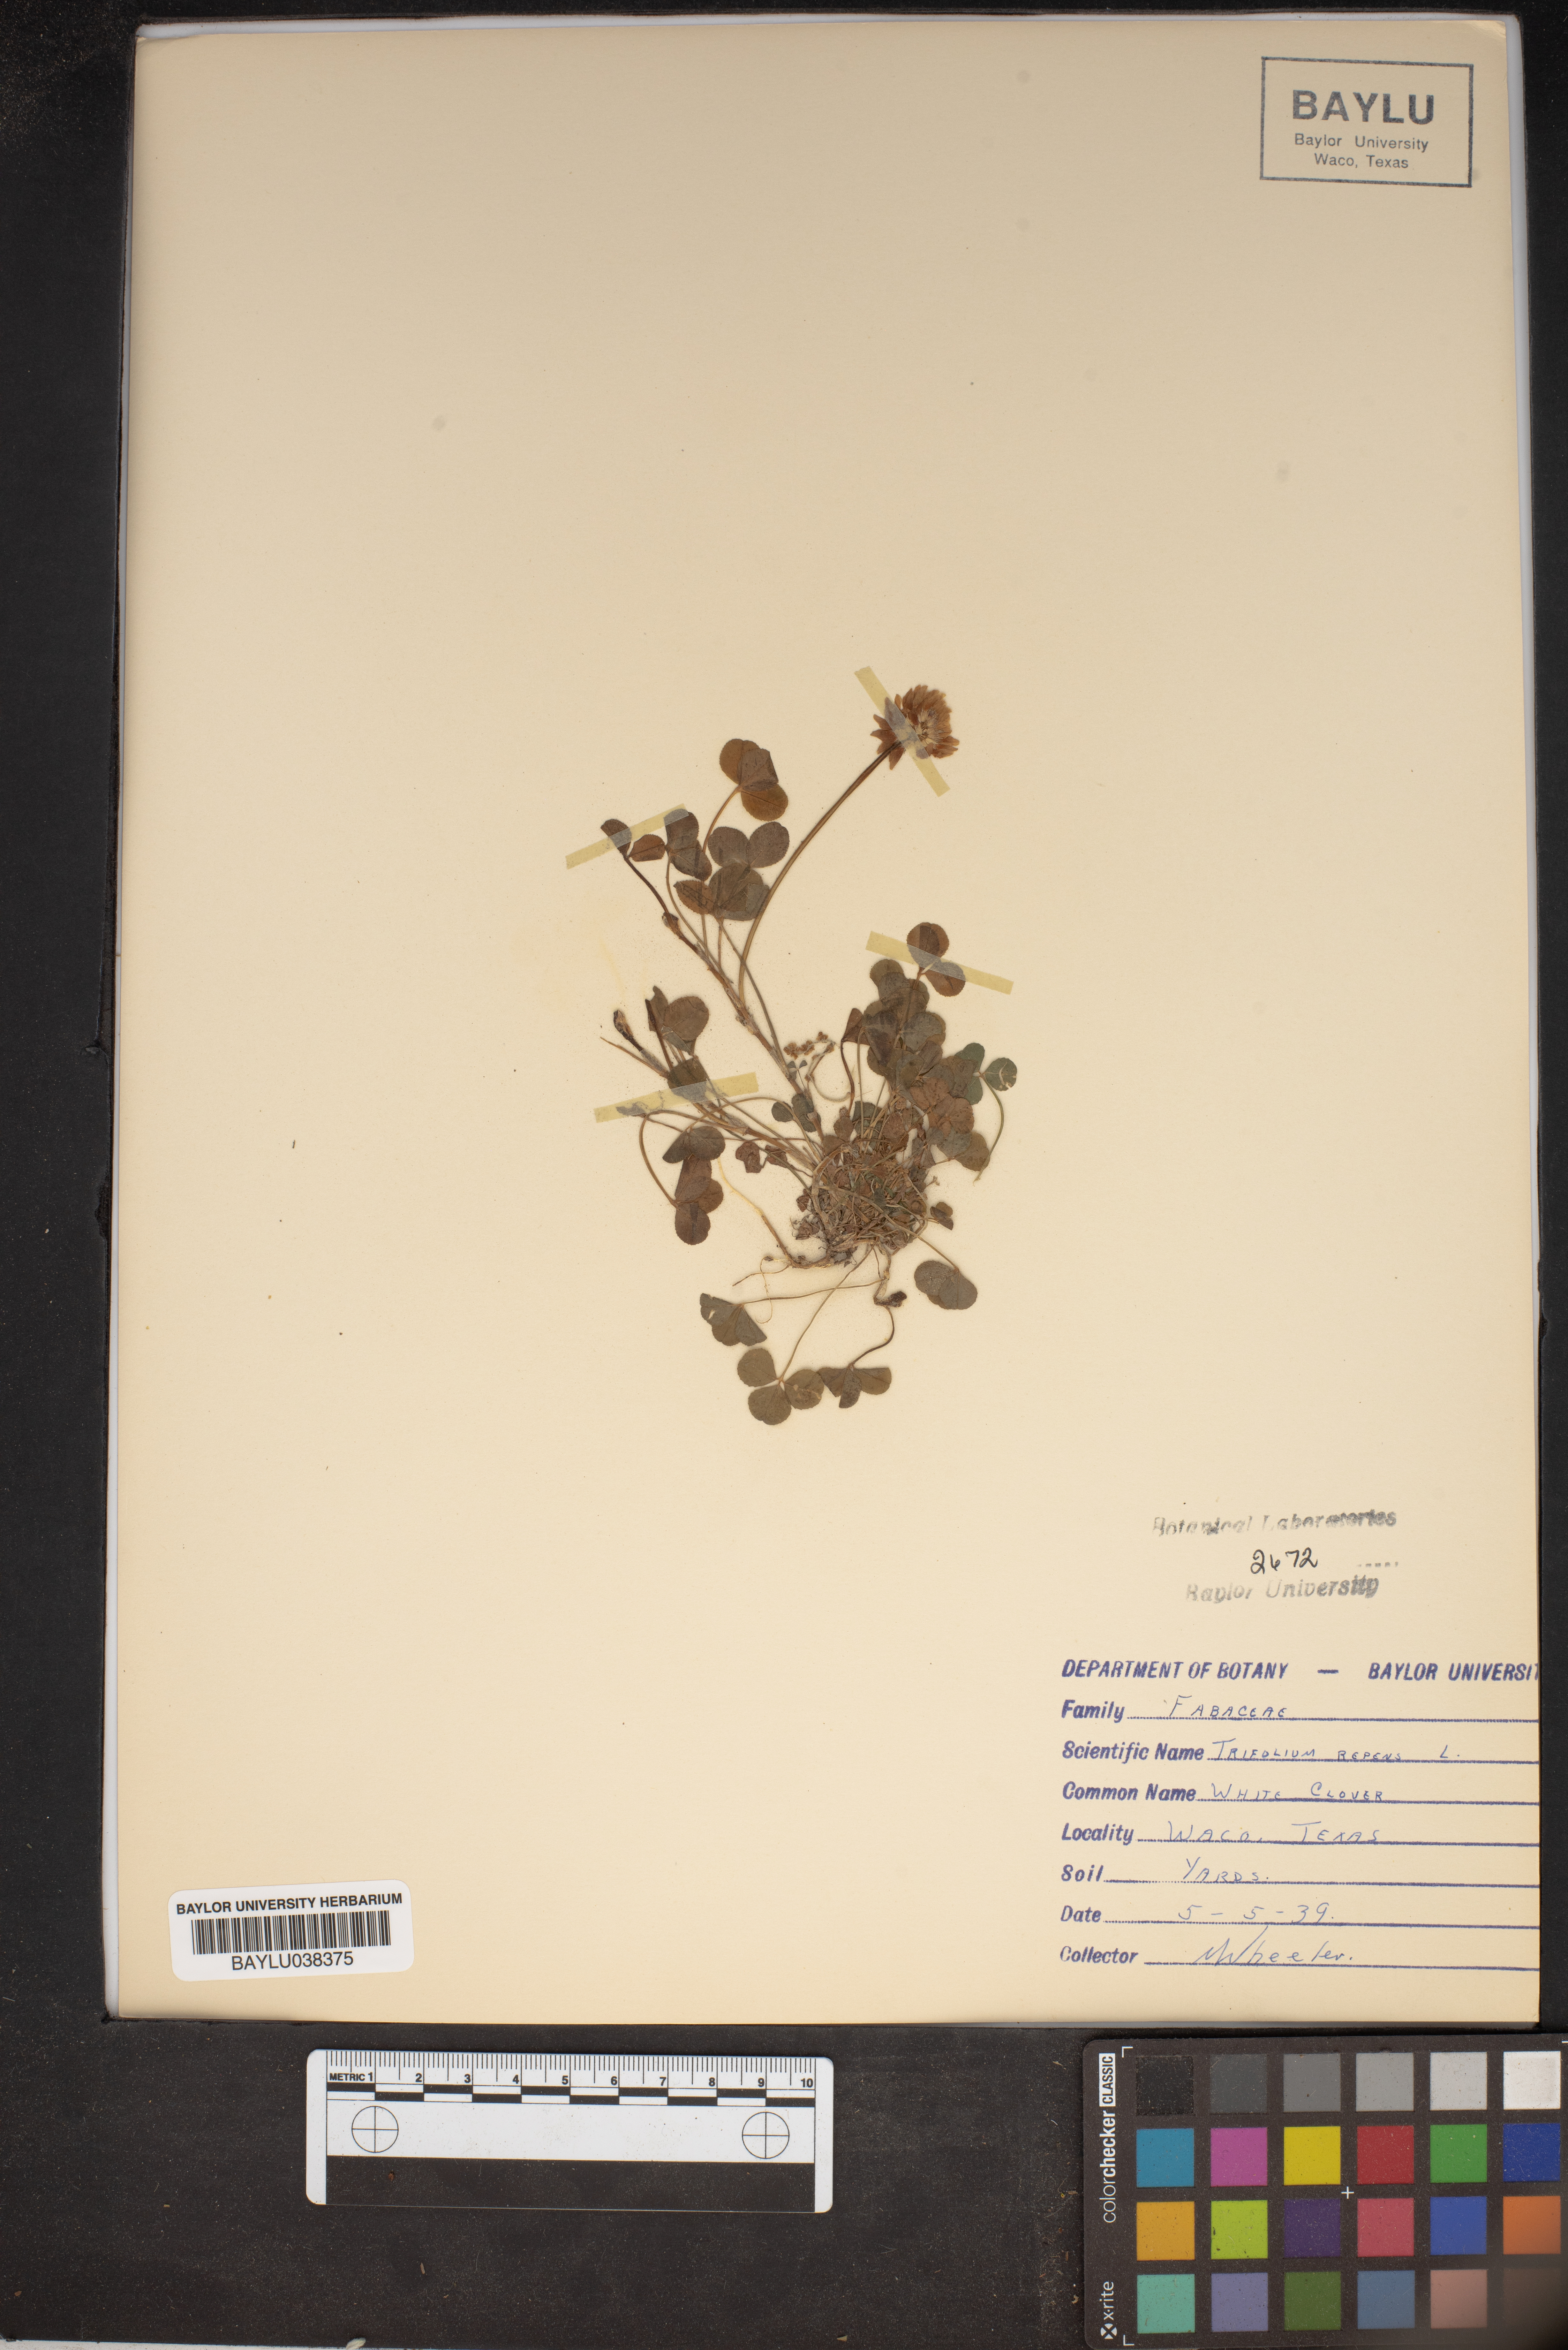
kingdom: Plantae
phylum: Tracheophyta
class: Magnoliopsida
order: Fabales
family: Fabaceae
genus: Trifolium
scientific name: Trifolium repens
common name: White clover
